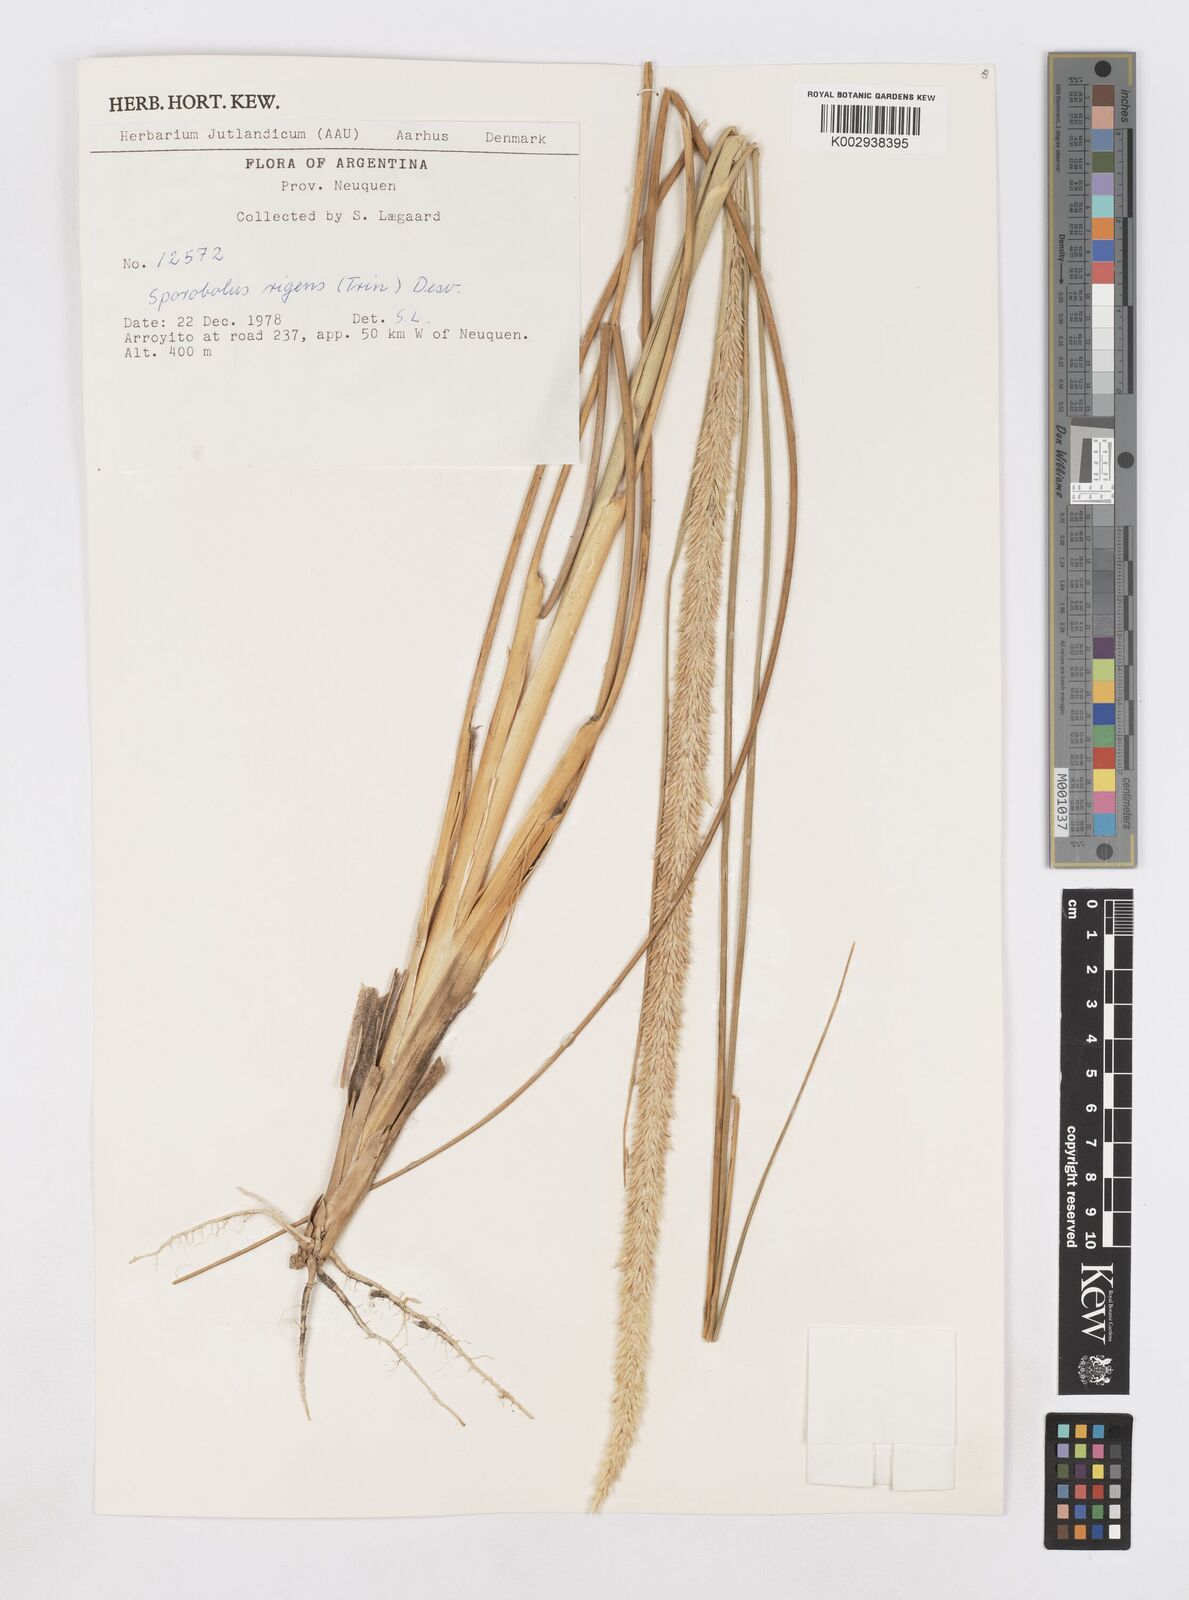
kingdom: Plantae
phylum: Tracheophyta
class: Liliopsida
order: Poales
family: Poaceae
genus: Sporobolus
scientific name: Sporobolus rigens
